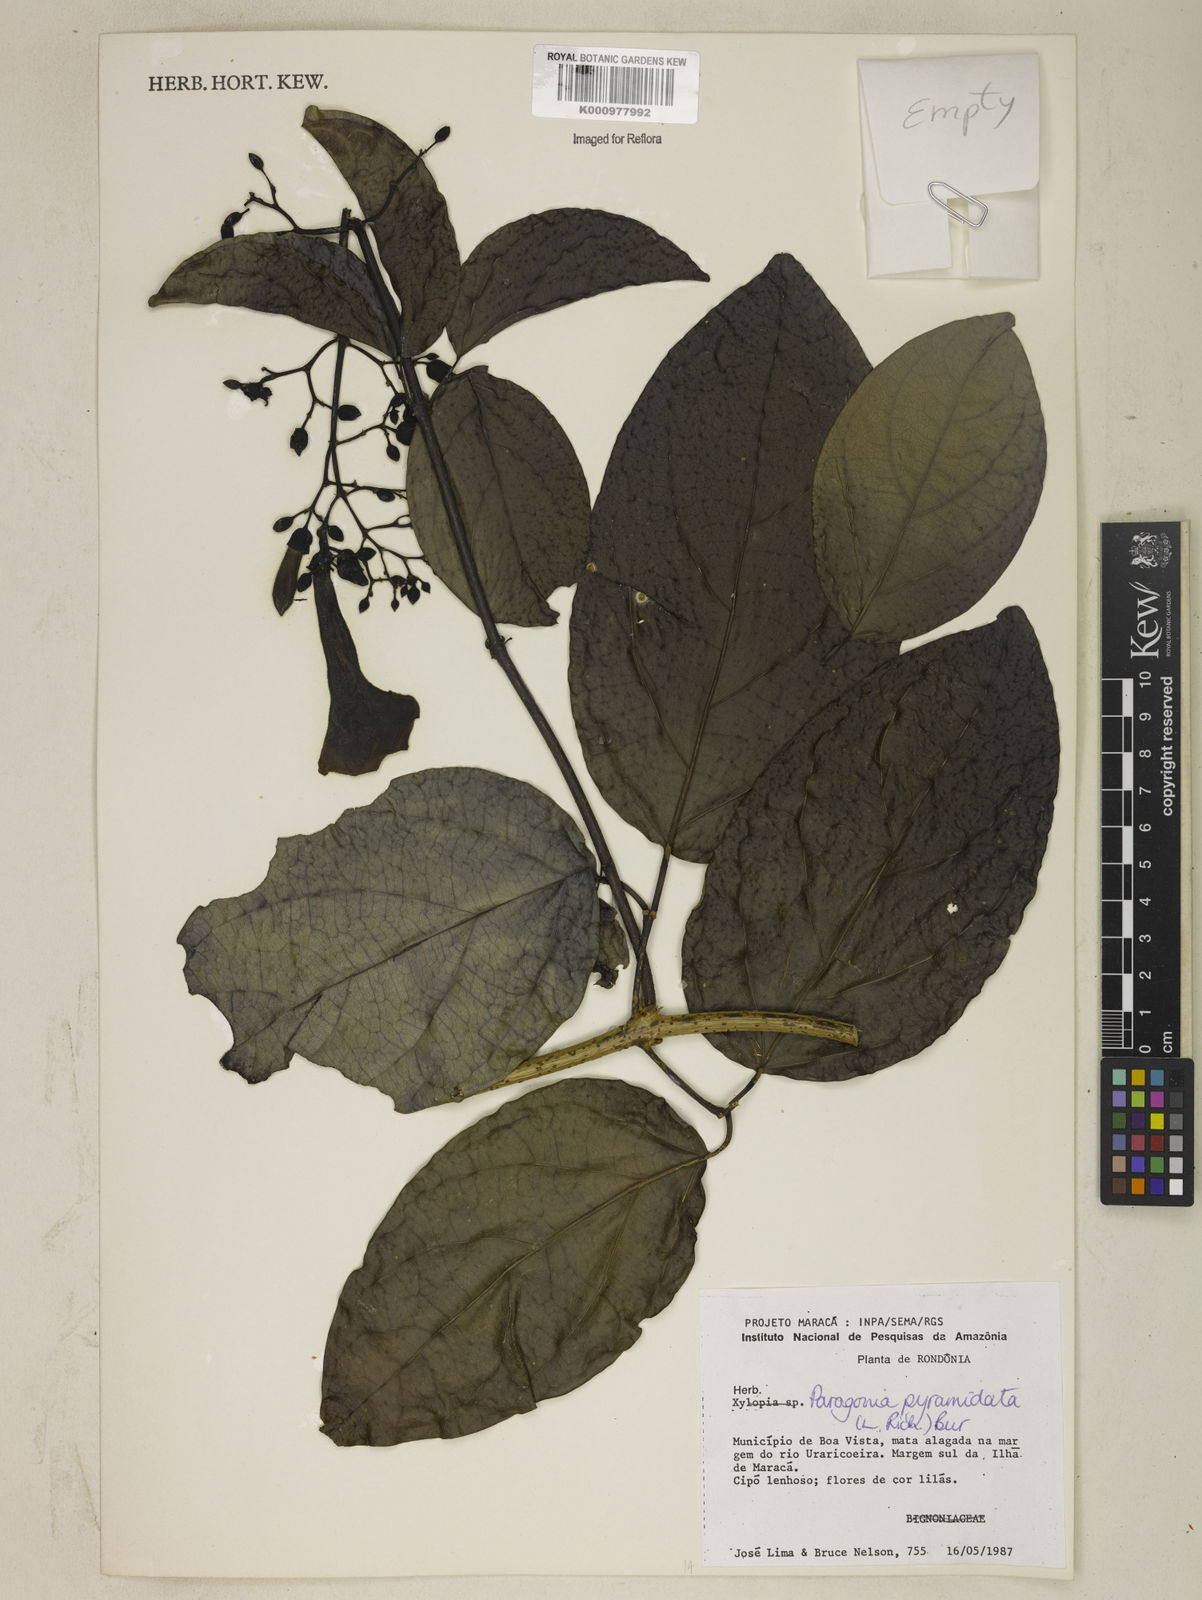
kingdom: Plantae
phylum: Tracheophyta
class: Magnoliopsida
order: Lamiales
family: Bignoniaceae
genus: Tanaecium
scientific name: Tanaecium pyramidatum
